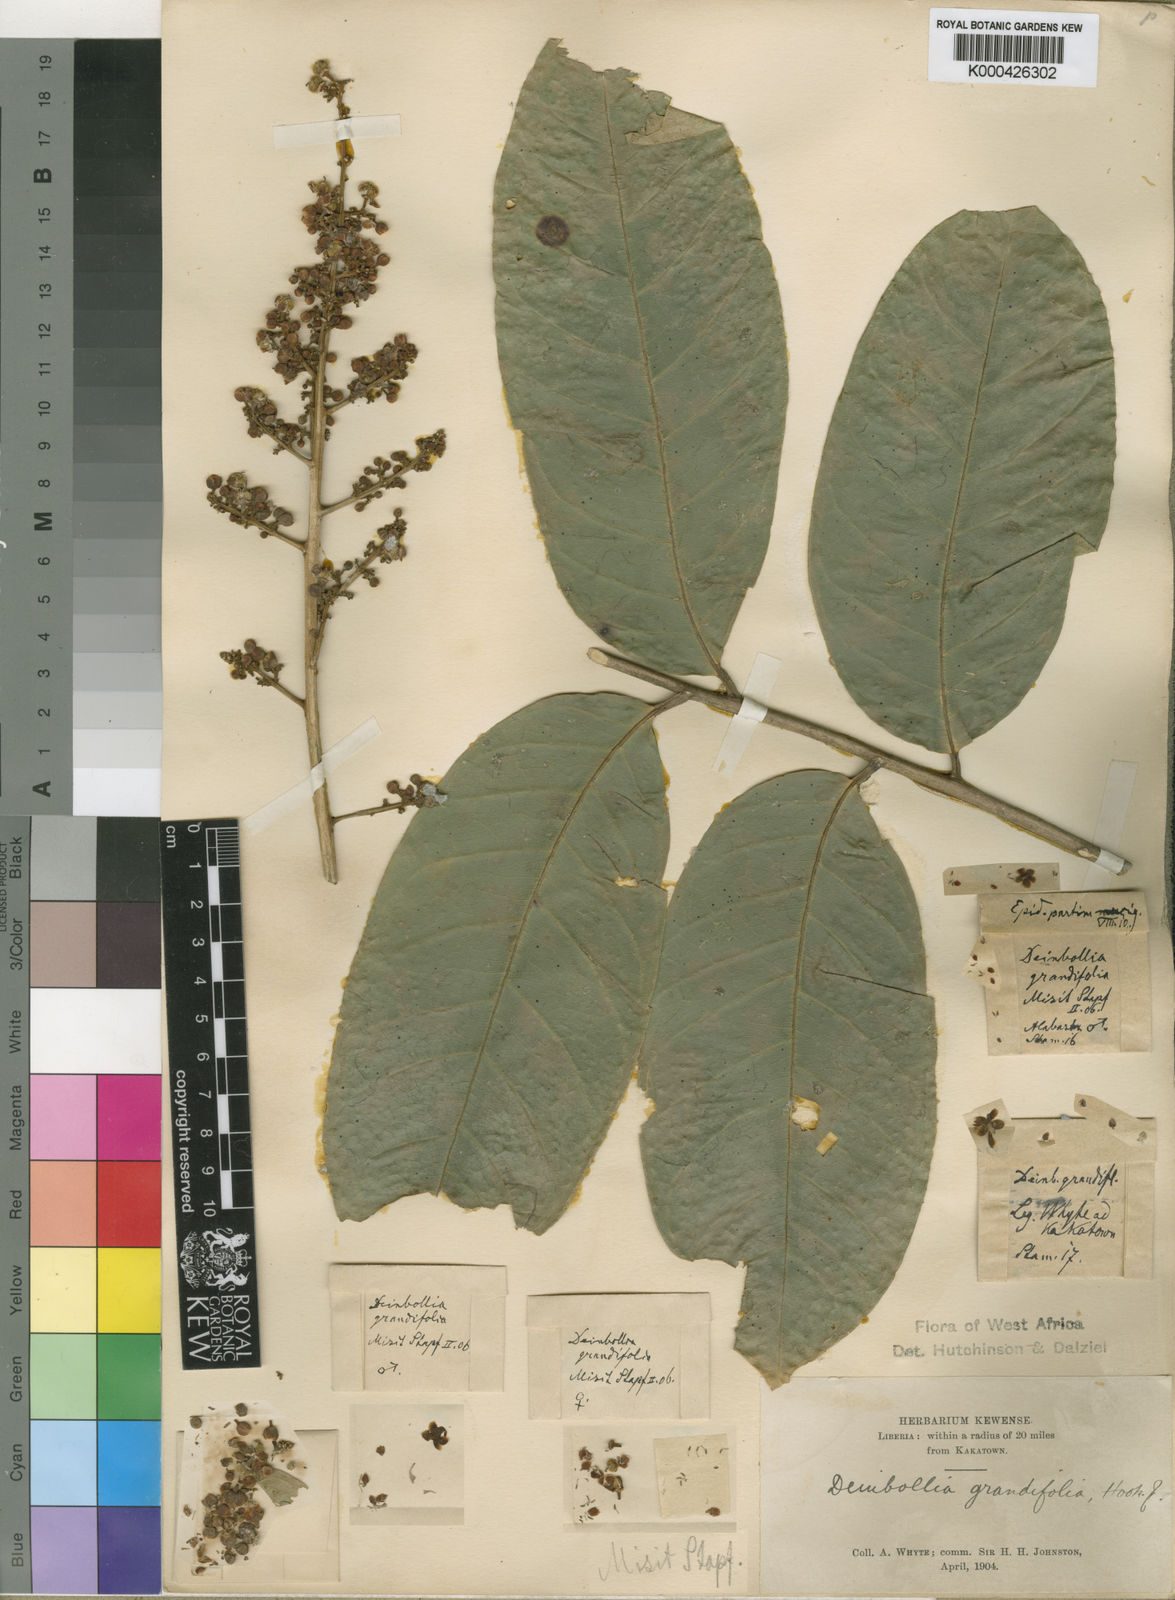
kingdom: Plantae
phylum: Tracheophyta
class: Magnoliopsida
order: Sapindales
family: Sapindaceae
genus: Deinbollia
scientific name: Deinbollia grandifolia
